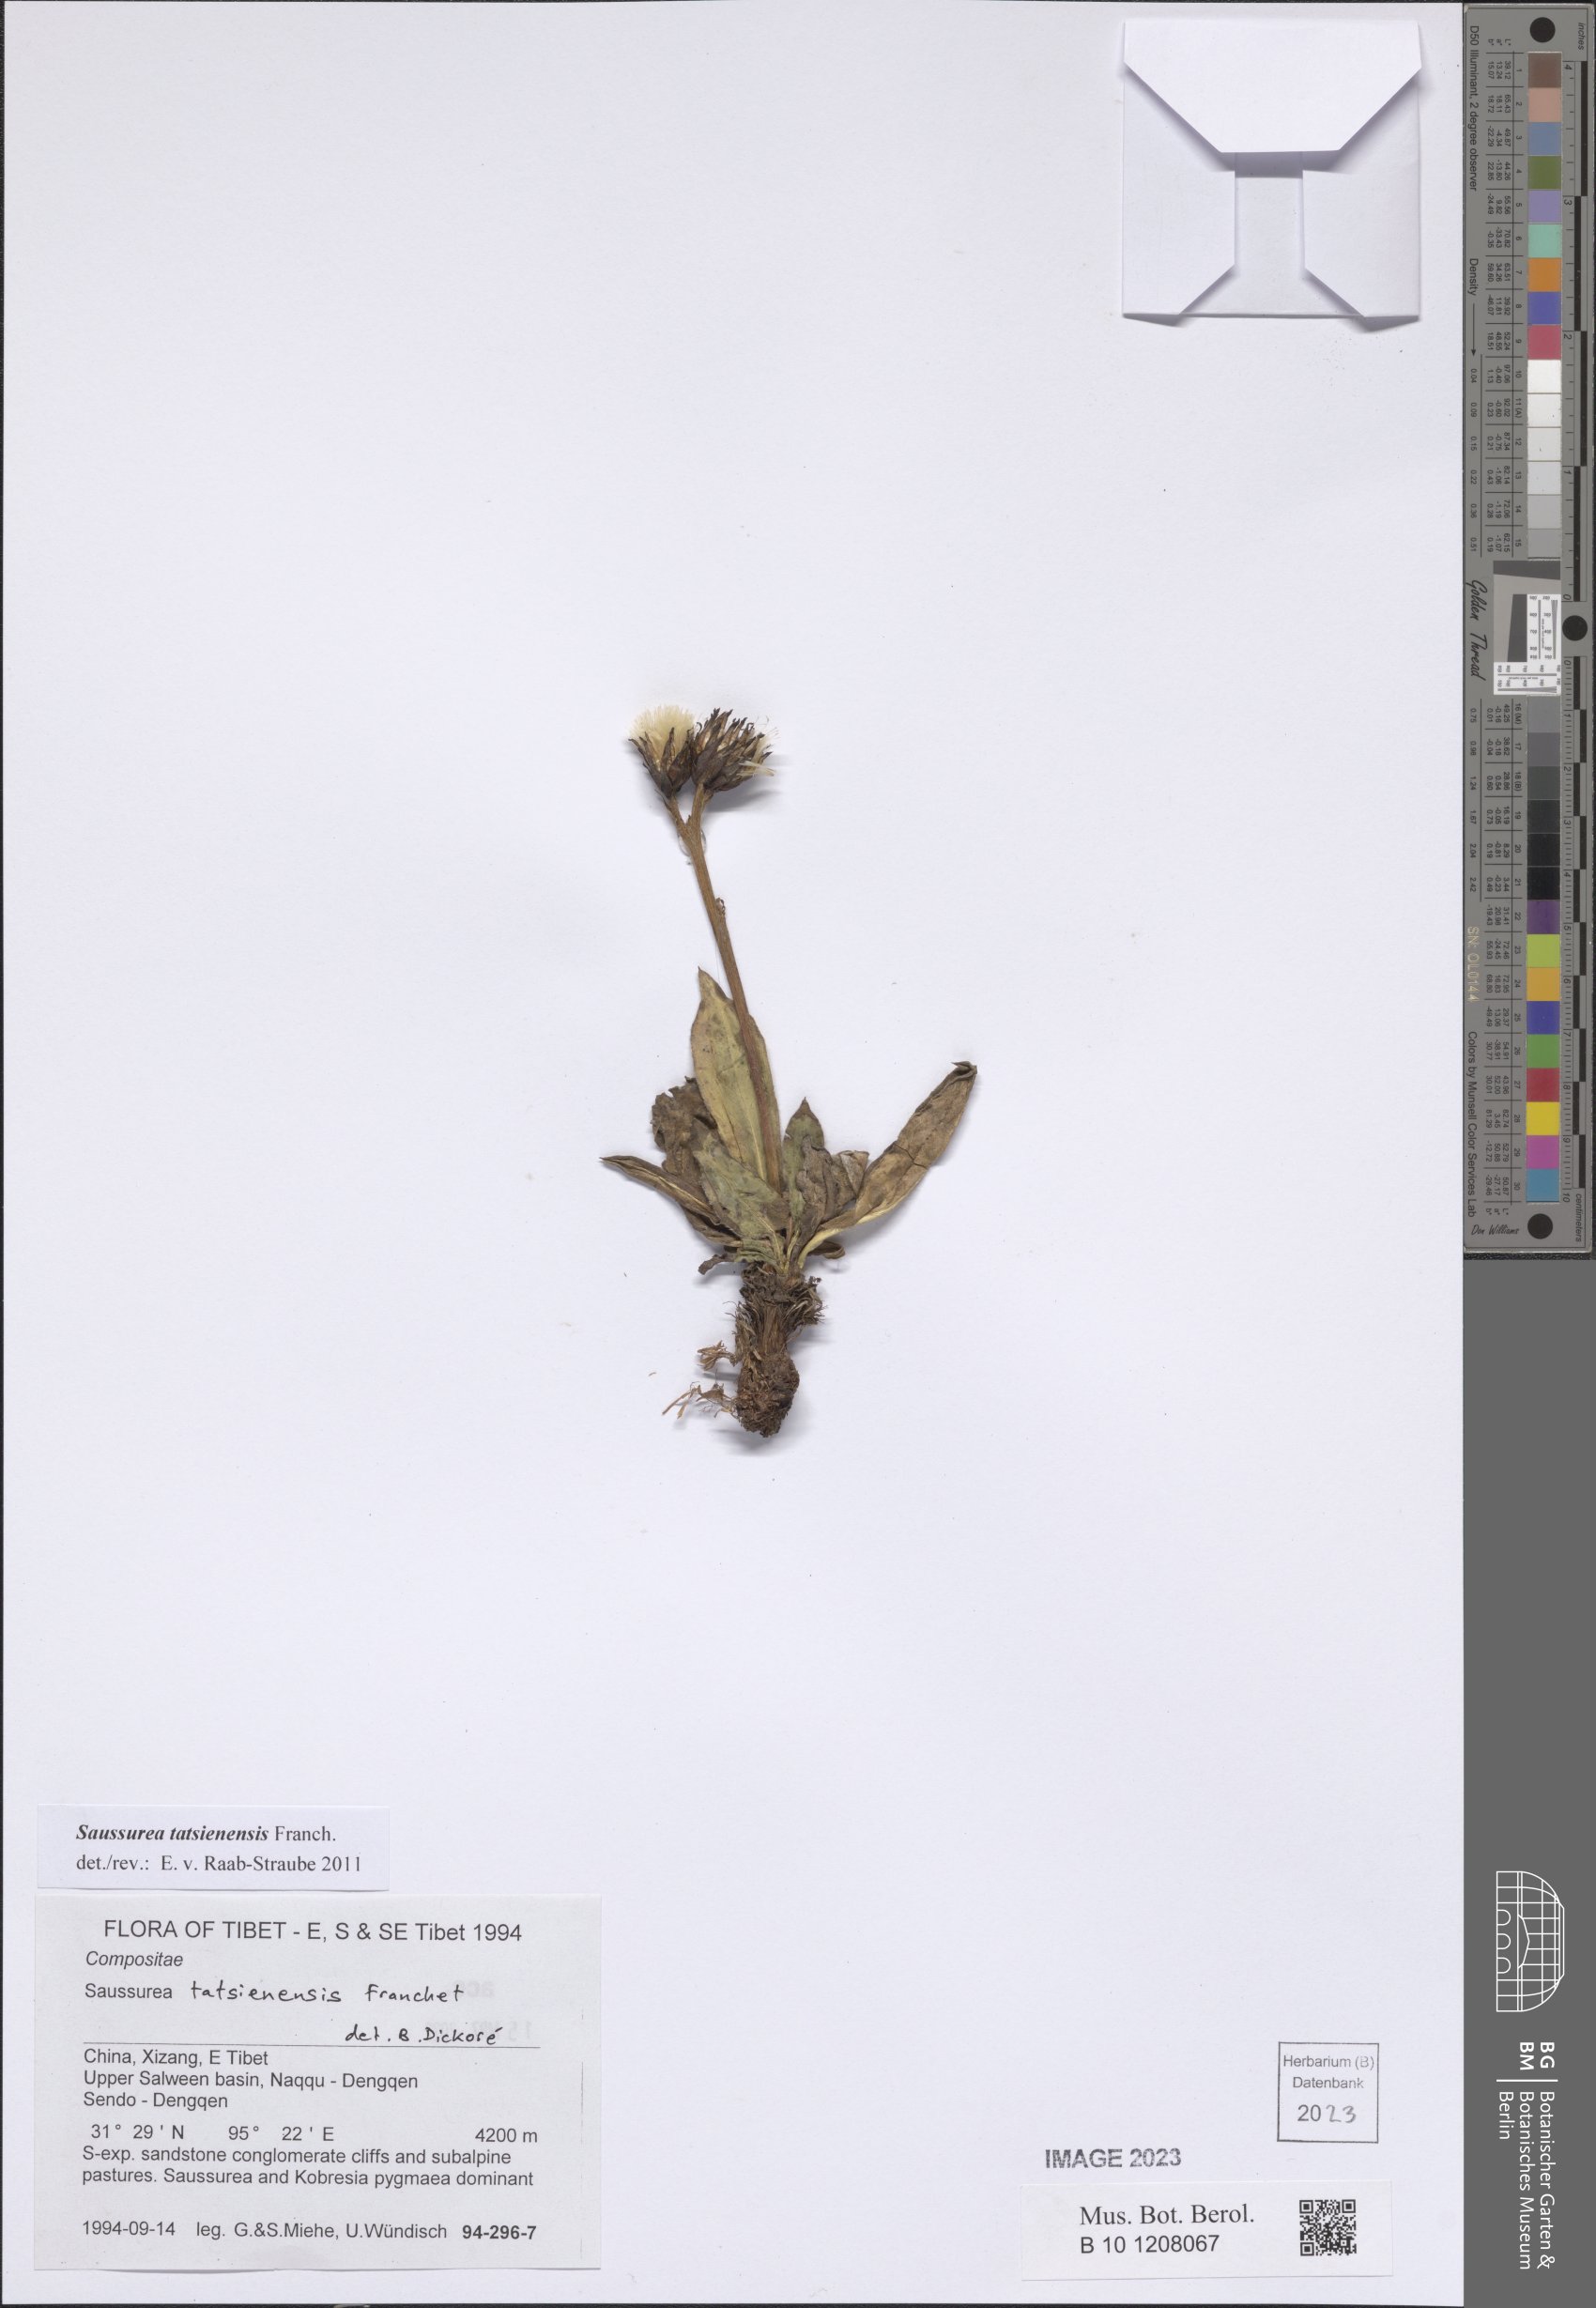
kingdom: Plantae
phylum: Tracheophyta
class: Magnoliopsida
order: Asterales
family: Asteraceae
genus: Saussurea
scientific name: Saussurea tatsienensis
